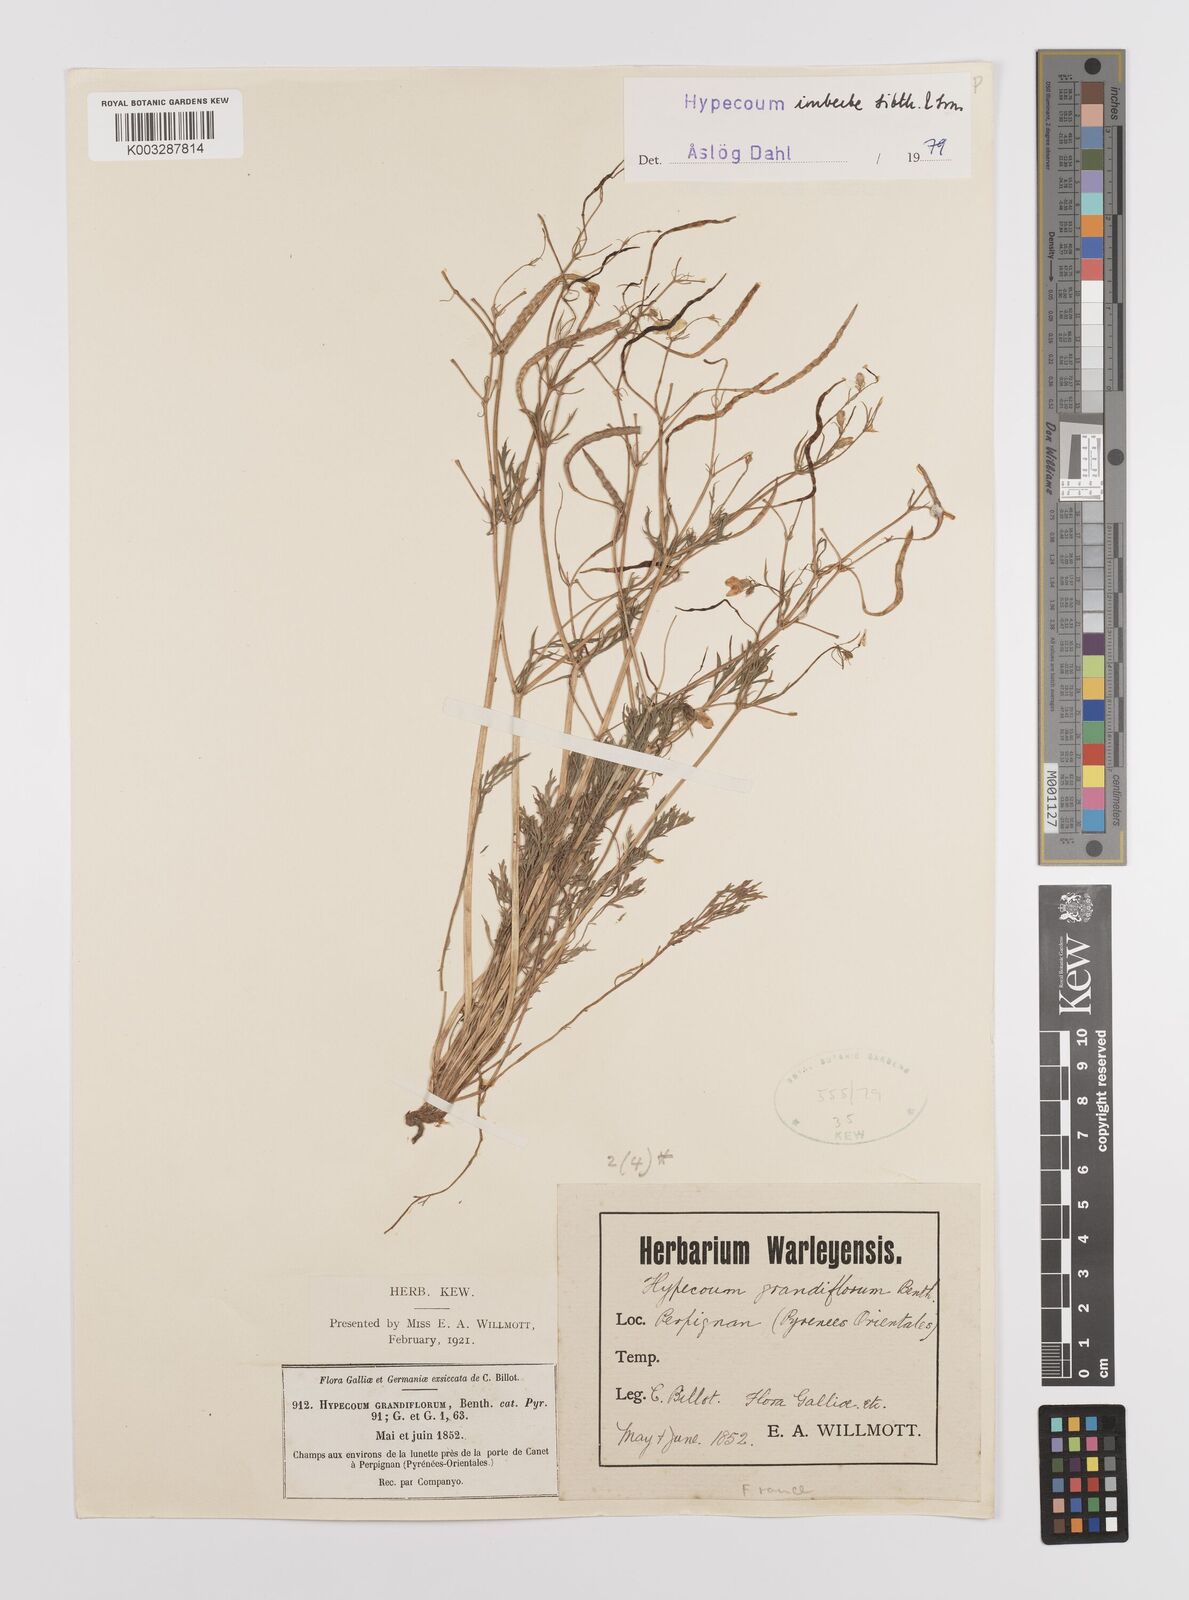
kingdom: Plantae
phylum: Tracheophyta
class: Magnoliopsida
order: Ranunculales
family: Papaveraceae
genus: Hypecoum
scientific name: Hypecoum imberbe
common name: Sicklefruit hypecoum
